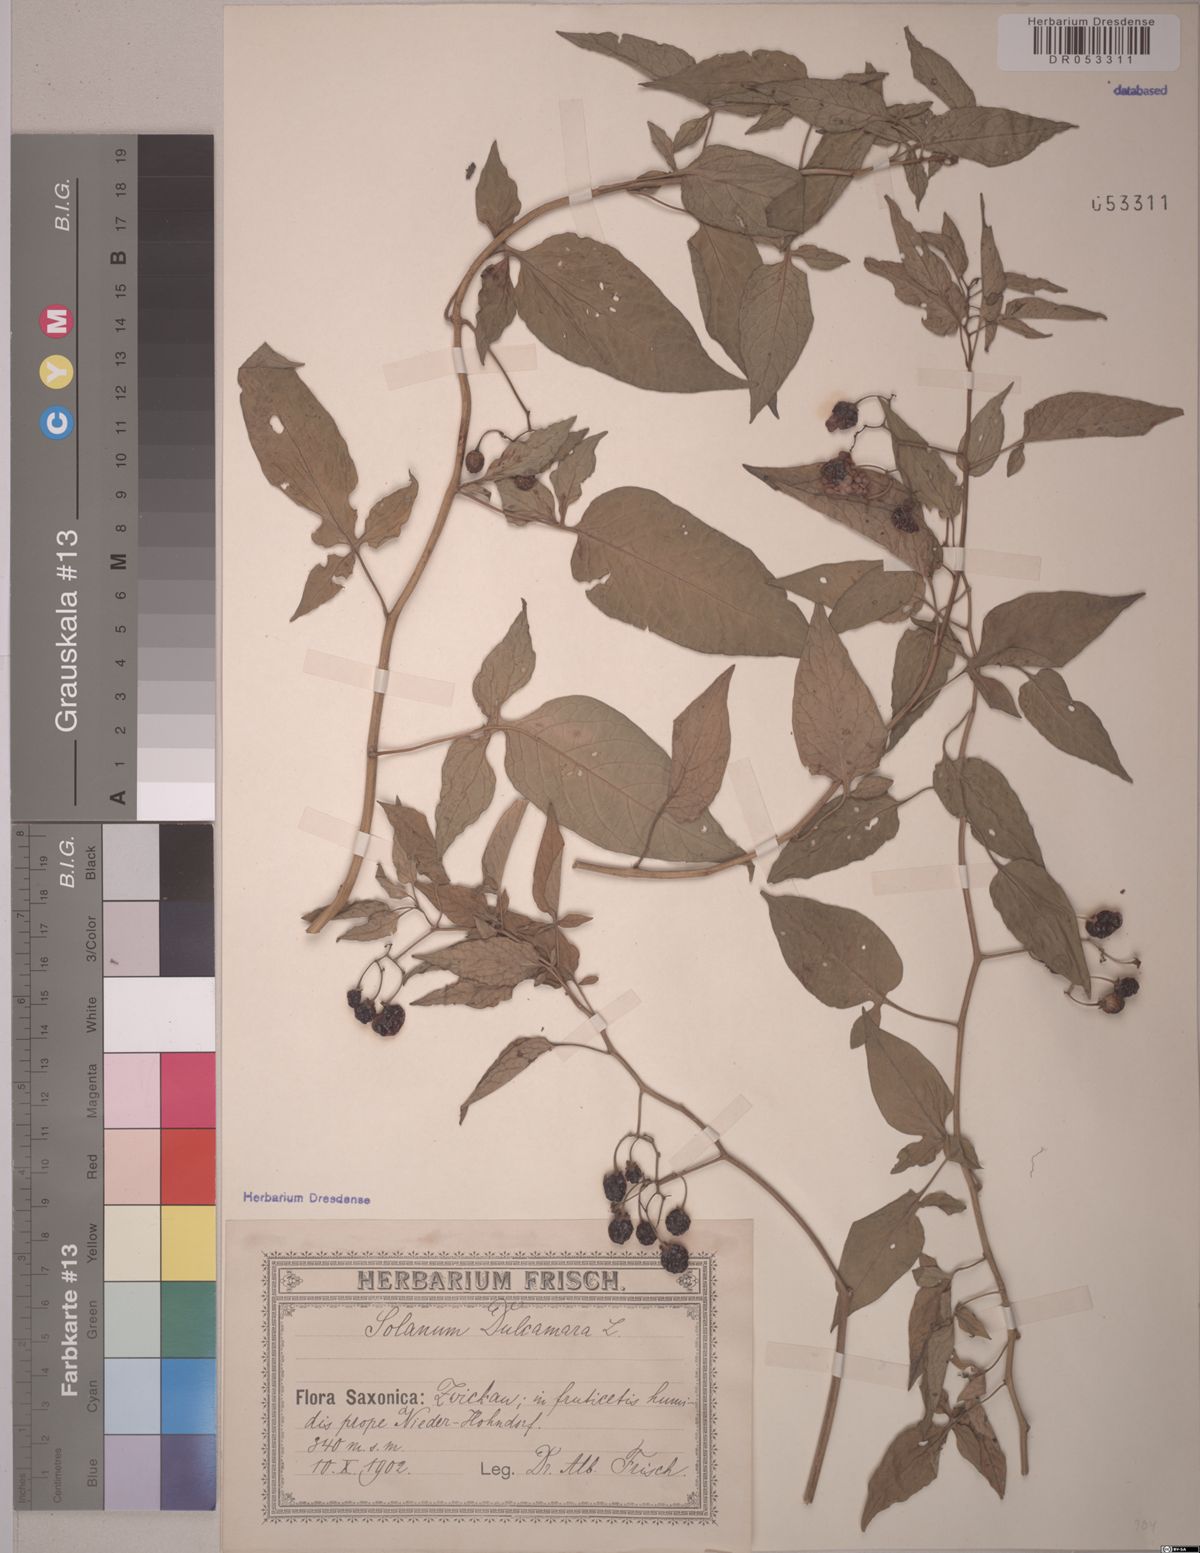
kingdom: Plantae
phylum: Tracheophyta
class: Magnoliopsida
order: Solanales
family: Solanaceae
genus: Solanum
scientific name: Solanum dulcamara
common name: Climbing nightshade
